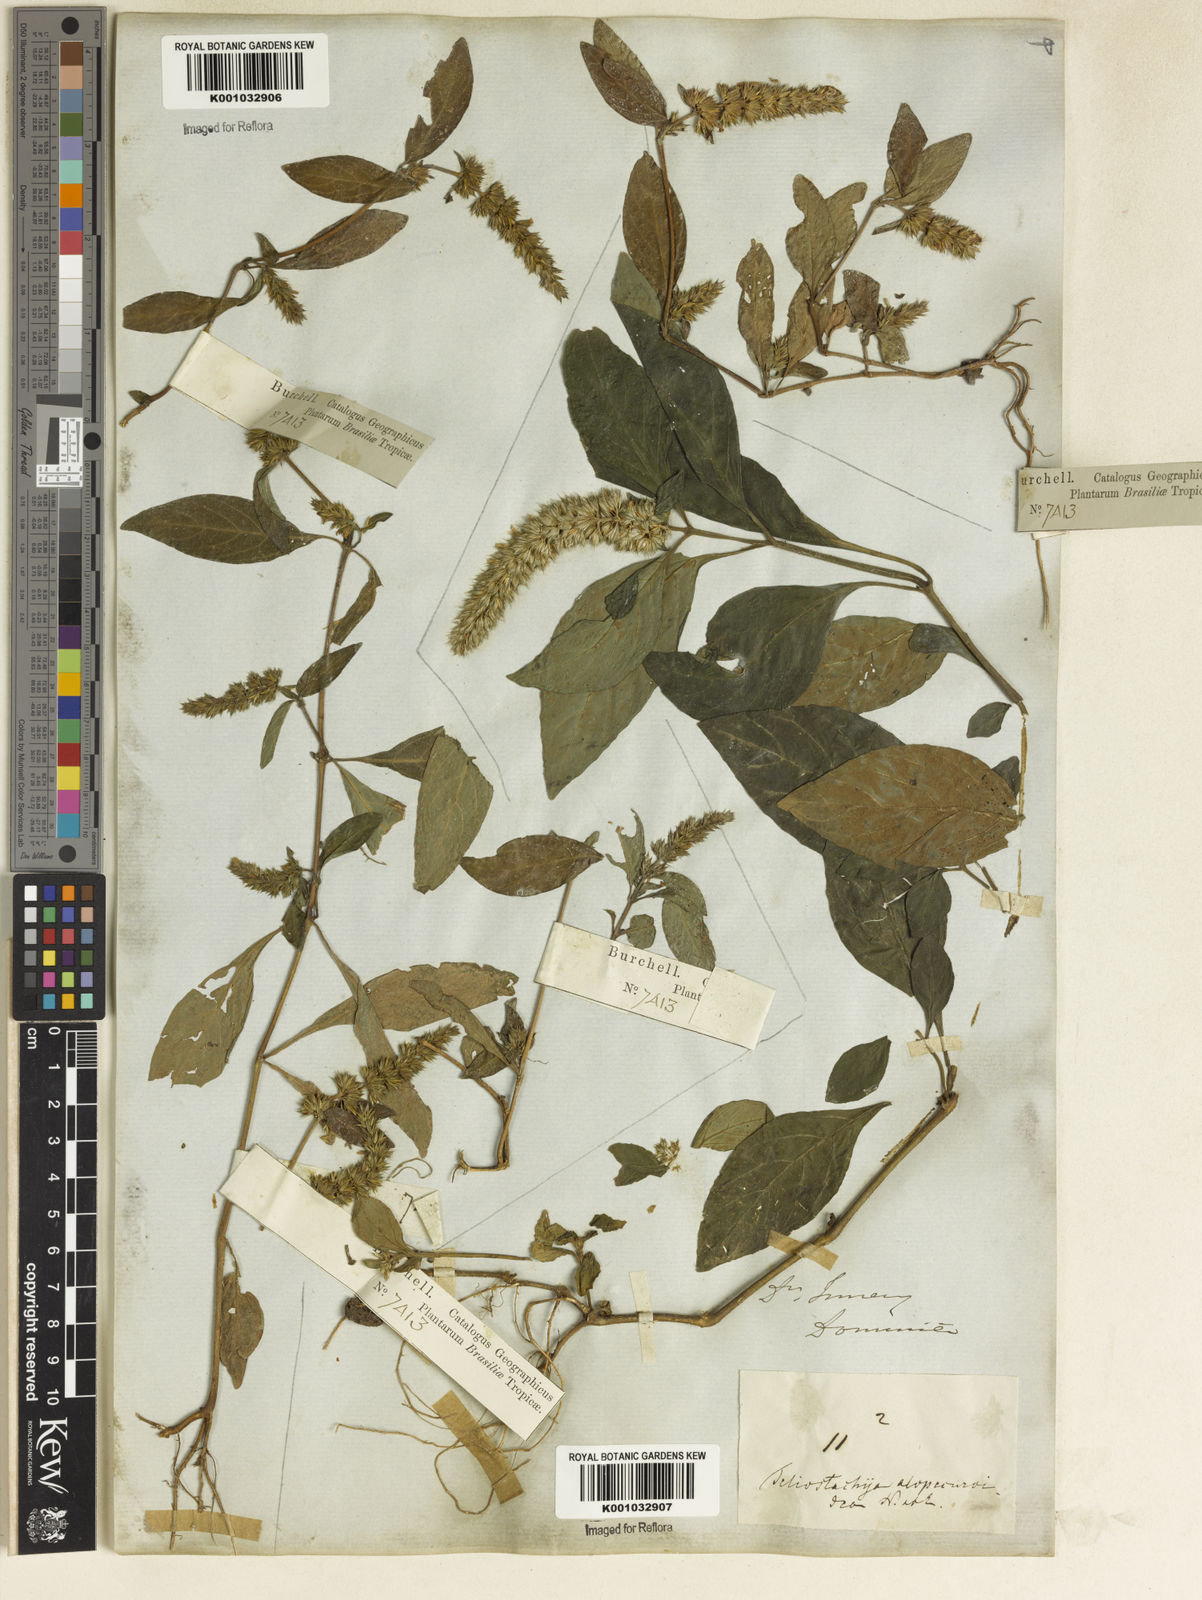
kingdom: Plantae
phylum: Tracheophyta
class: Magnoliopsida
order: Lamiales
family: Acanthaceae
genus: Lepidagathis
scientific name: Lepidagathis alopecuroidea
